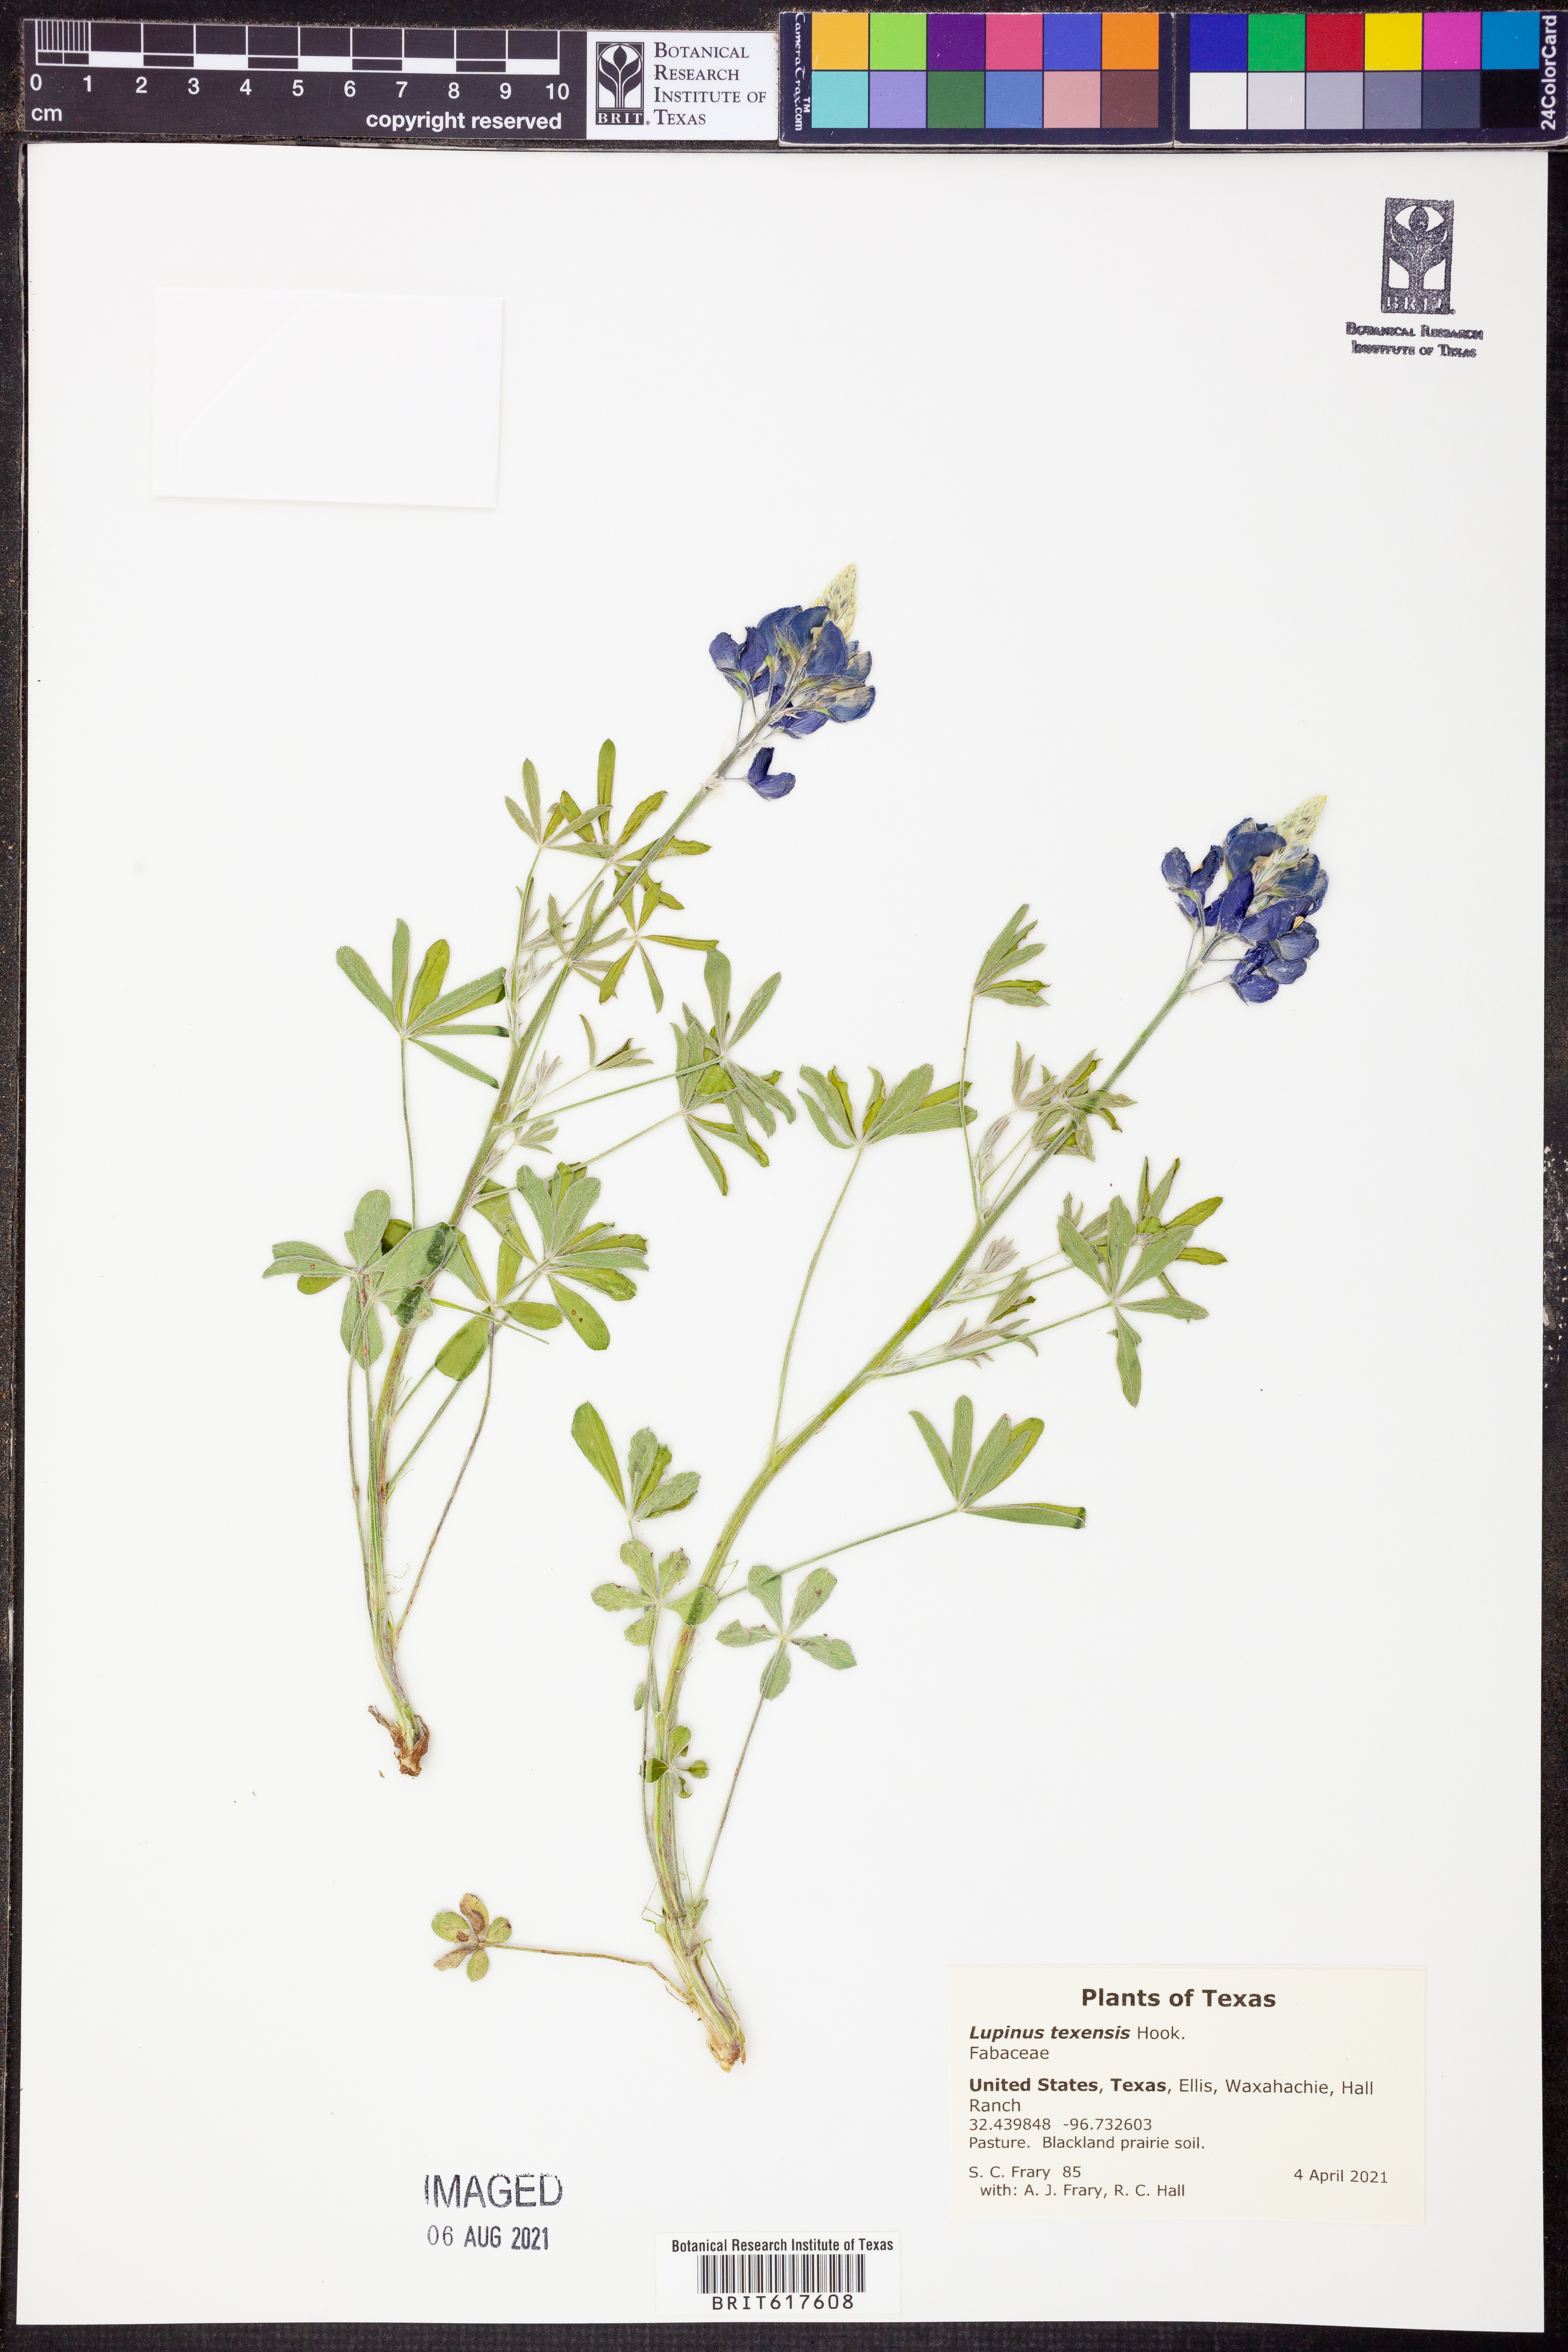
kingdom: Plantae
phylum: Tracheophyta
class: Magnoliopsida
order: Fabales
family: Fabaceae
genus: Lupinus
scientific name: Lupinus texensis
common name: Texas bluebonnet
